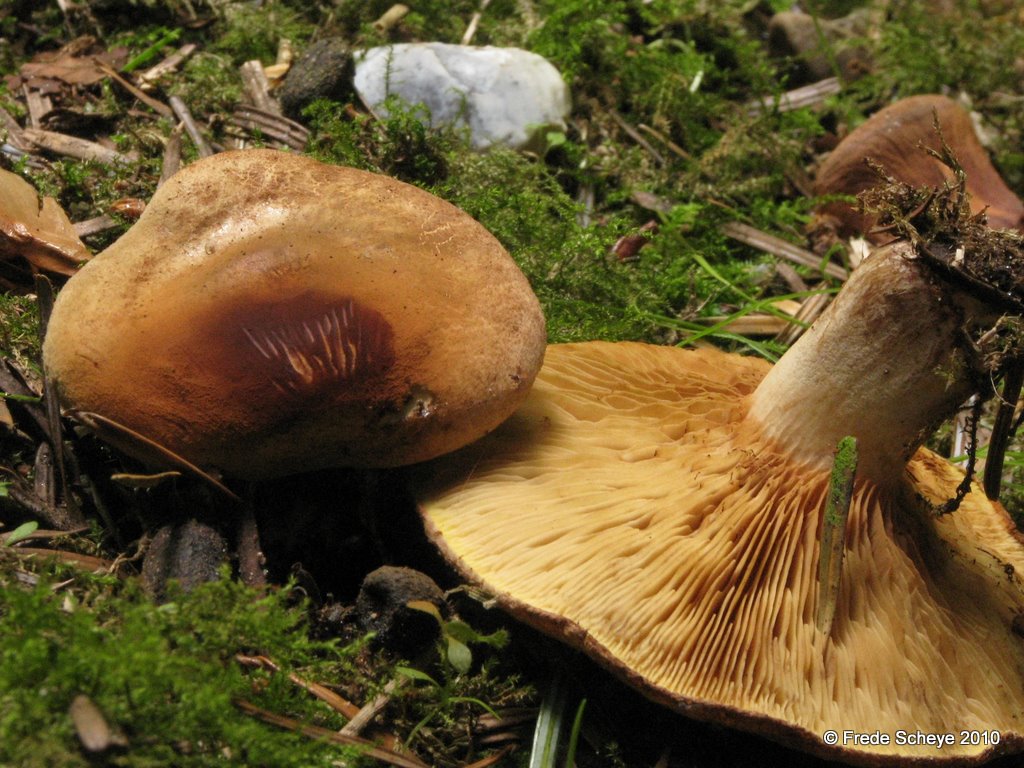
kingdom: Fungi
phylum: Basidiomycota
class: Agaricomycetes
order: Boletales
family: Paxillaceae
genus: Paxillus
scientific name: Paxillus involutus
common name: almindelig netbladhat
